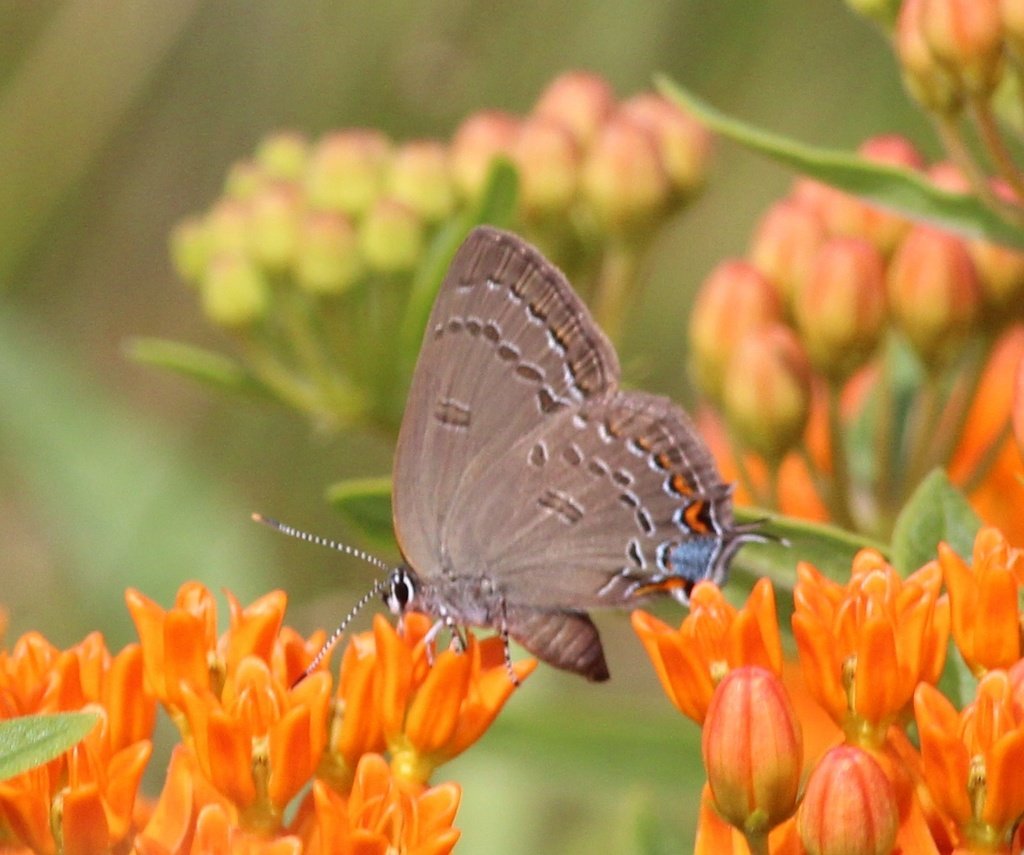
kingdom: Animalia
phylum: Arthropoda
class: Insecta
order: Lepidoptera
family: Lycaenidae
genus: Satyrium
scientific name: Satyrium edwardsii
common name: Edwards' Hairstreak
